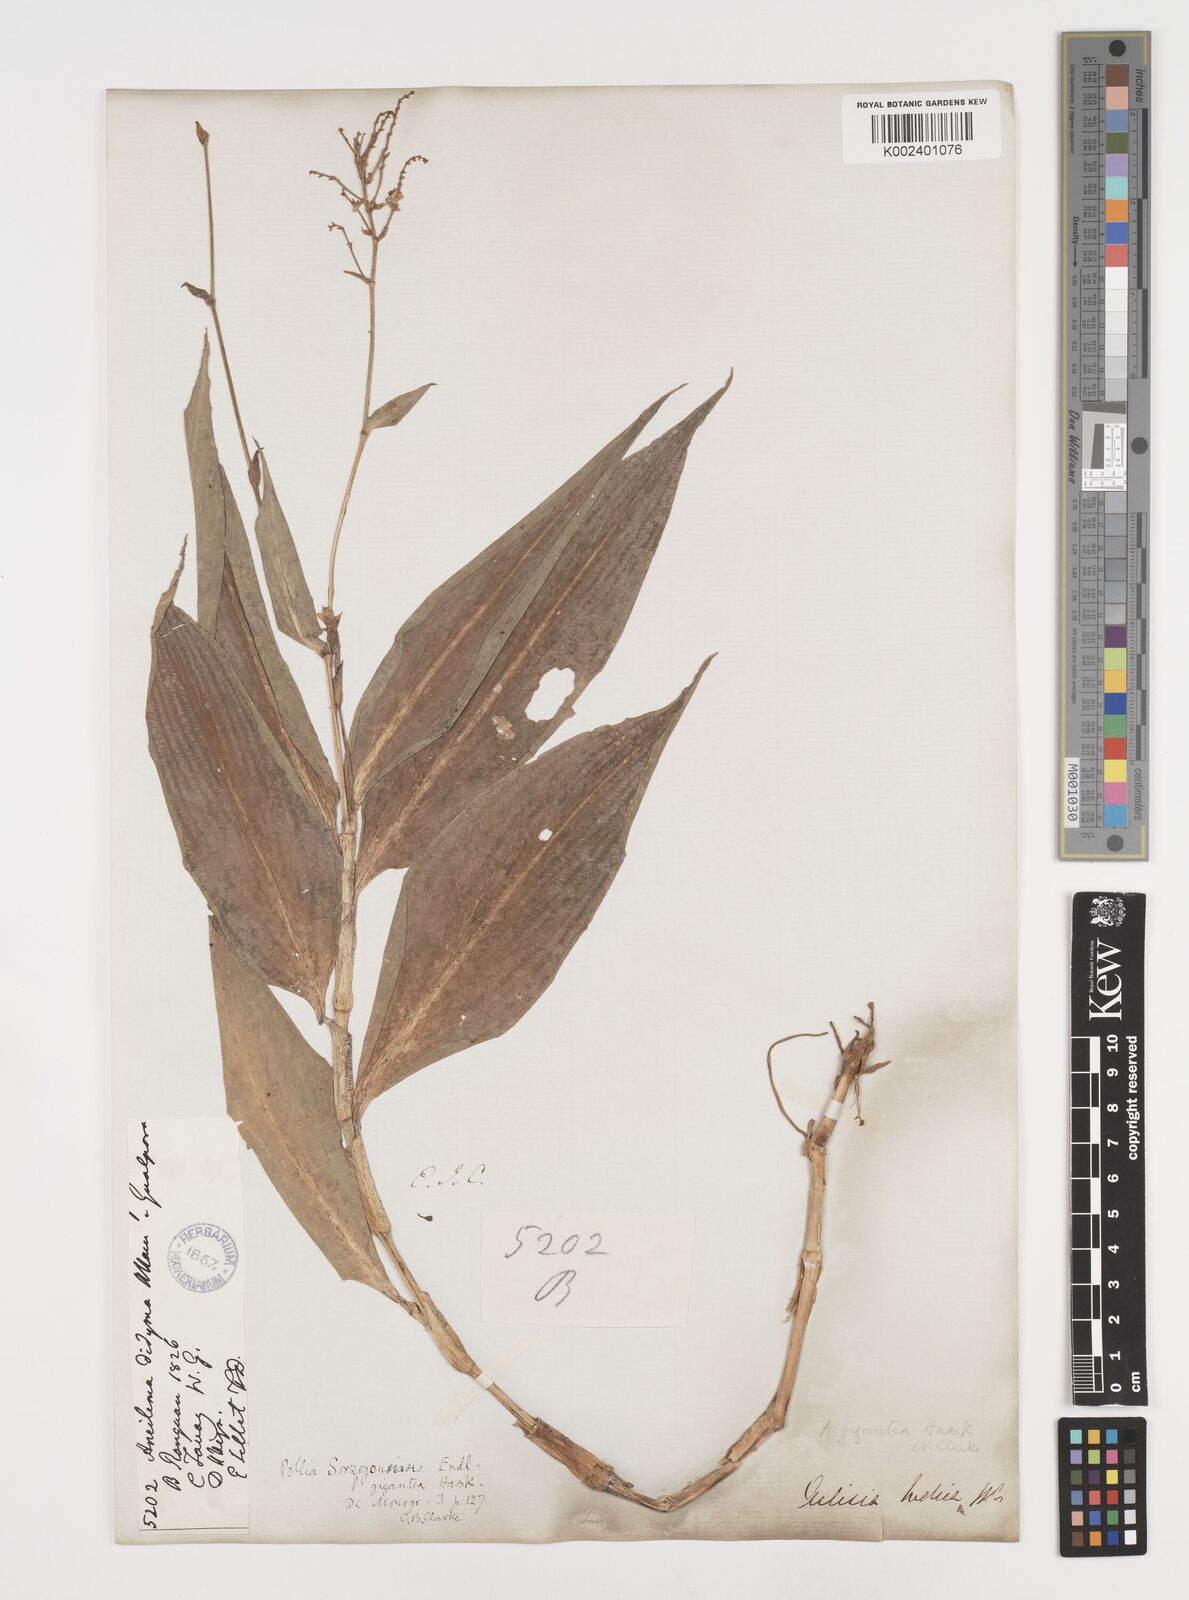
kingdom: Plantae
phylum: Tracheophyta
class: Liliopsida
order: Commelinales
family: Commelinaceae
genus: Pollia
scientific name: Pollia secundiflora
